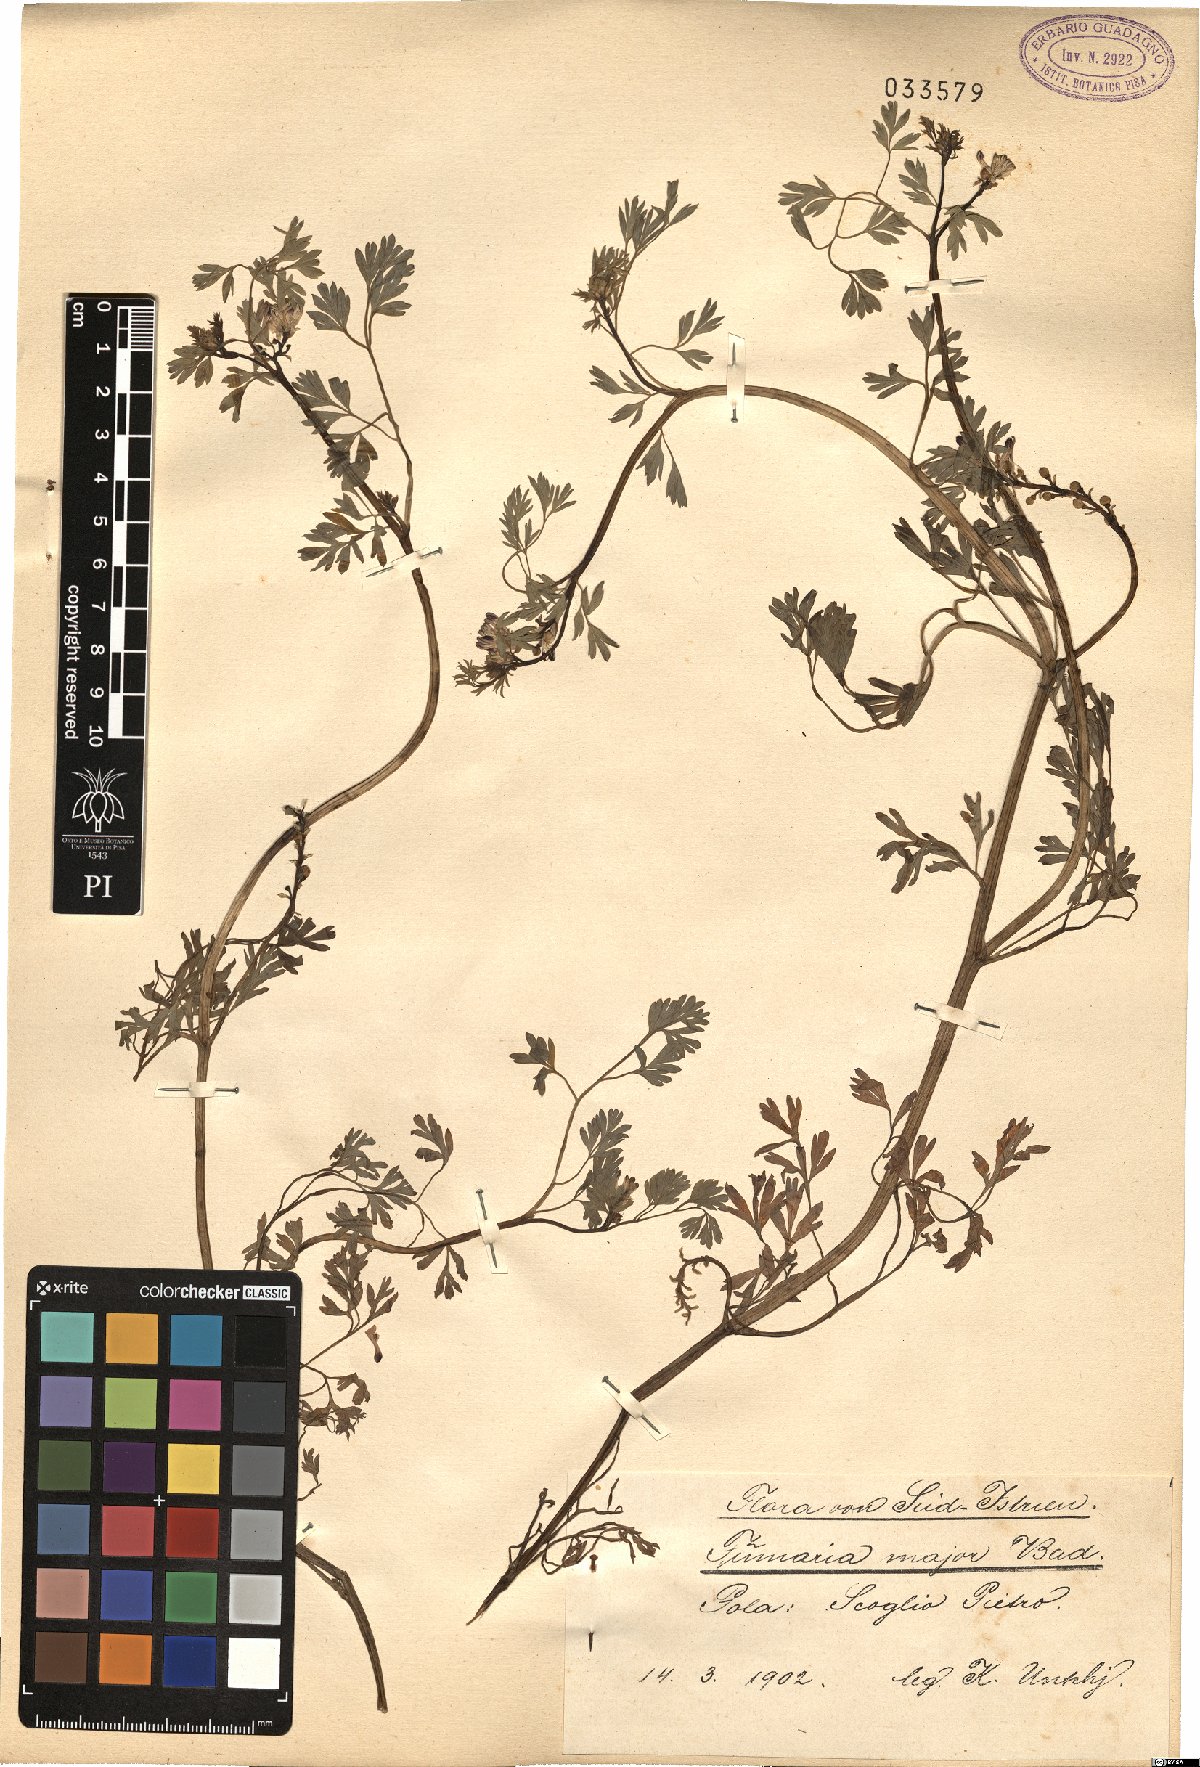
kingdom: Plantae
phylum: Tracheophyta
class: Magnoliopsida
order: Ranunculales
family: Papaveraceae
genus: Fumaria
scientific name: Fumaria barnolae
